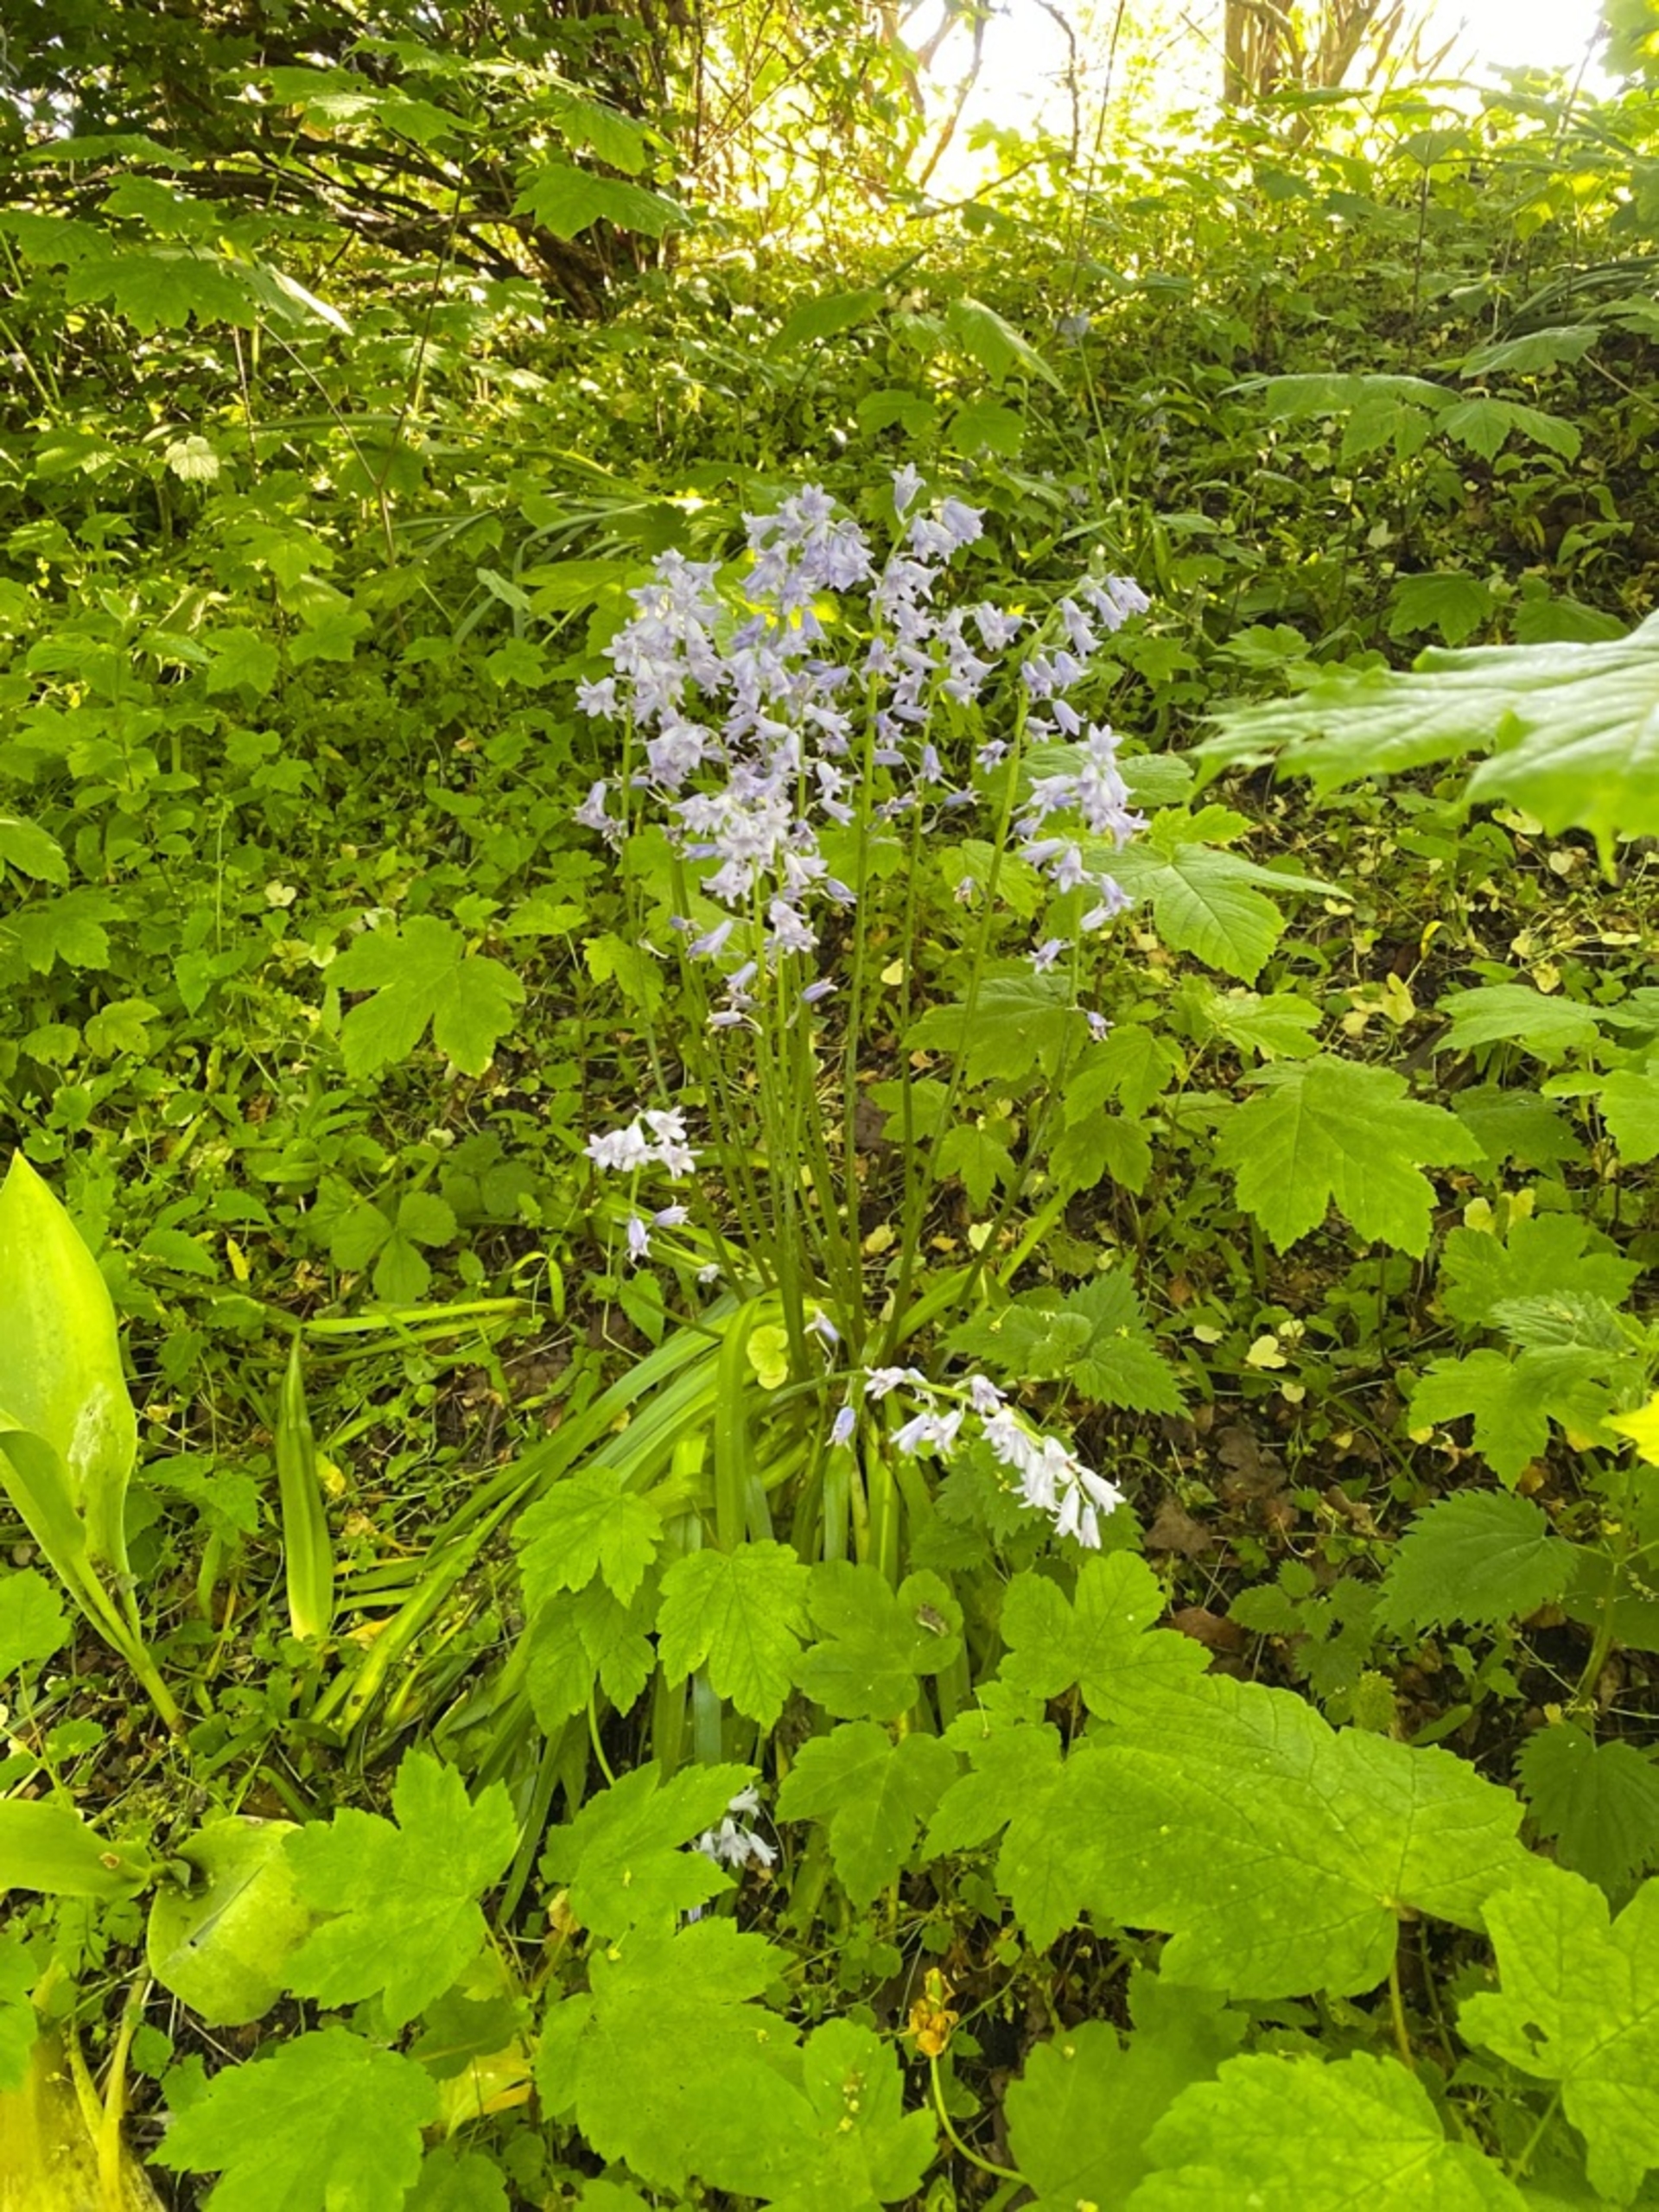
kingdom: Plantae
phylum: Tracheophyta
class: Liliopsida
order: Asparagales
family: Asparagaceae
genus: Hyacinthoides
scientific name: Hyacinthoides non-scripta
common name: Klokke-skilla
